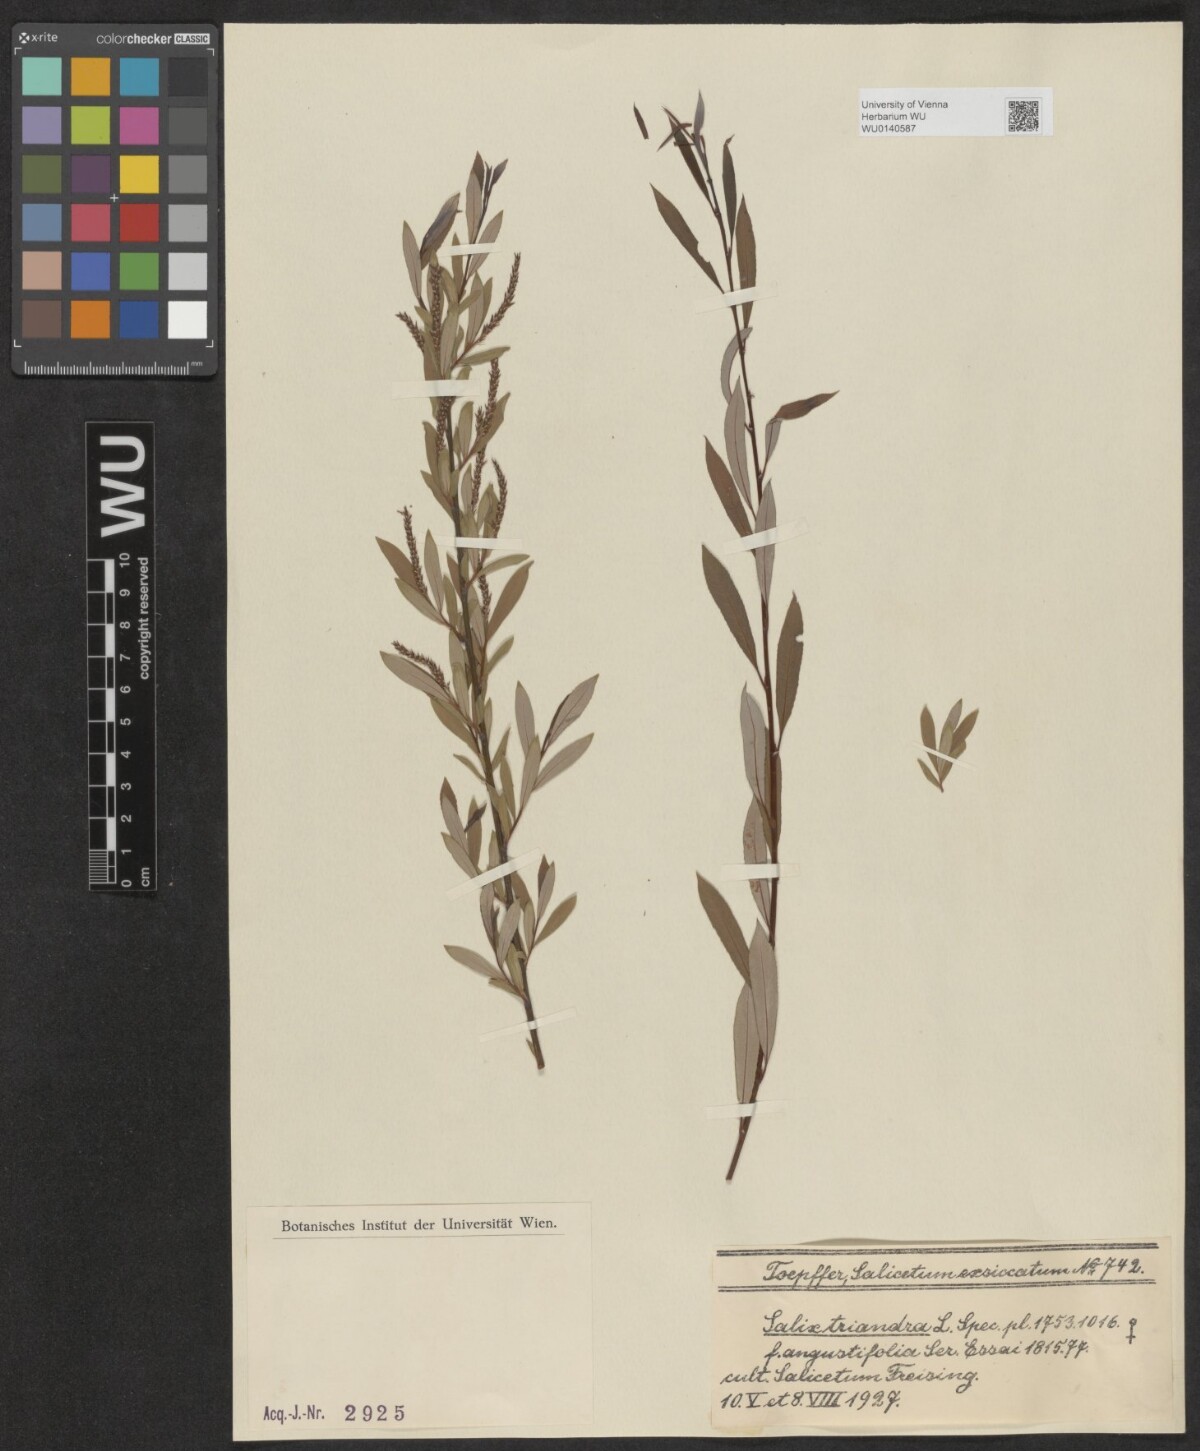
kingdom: Plantae
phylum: Tracheophyta
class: Magnoliopsida
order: Malpighiales
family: Salicaceae
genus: Salix
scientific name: Salix triandra
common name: Almond willow
